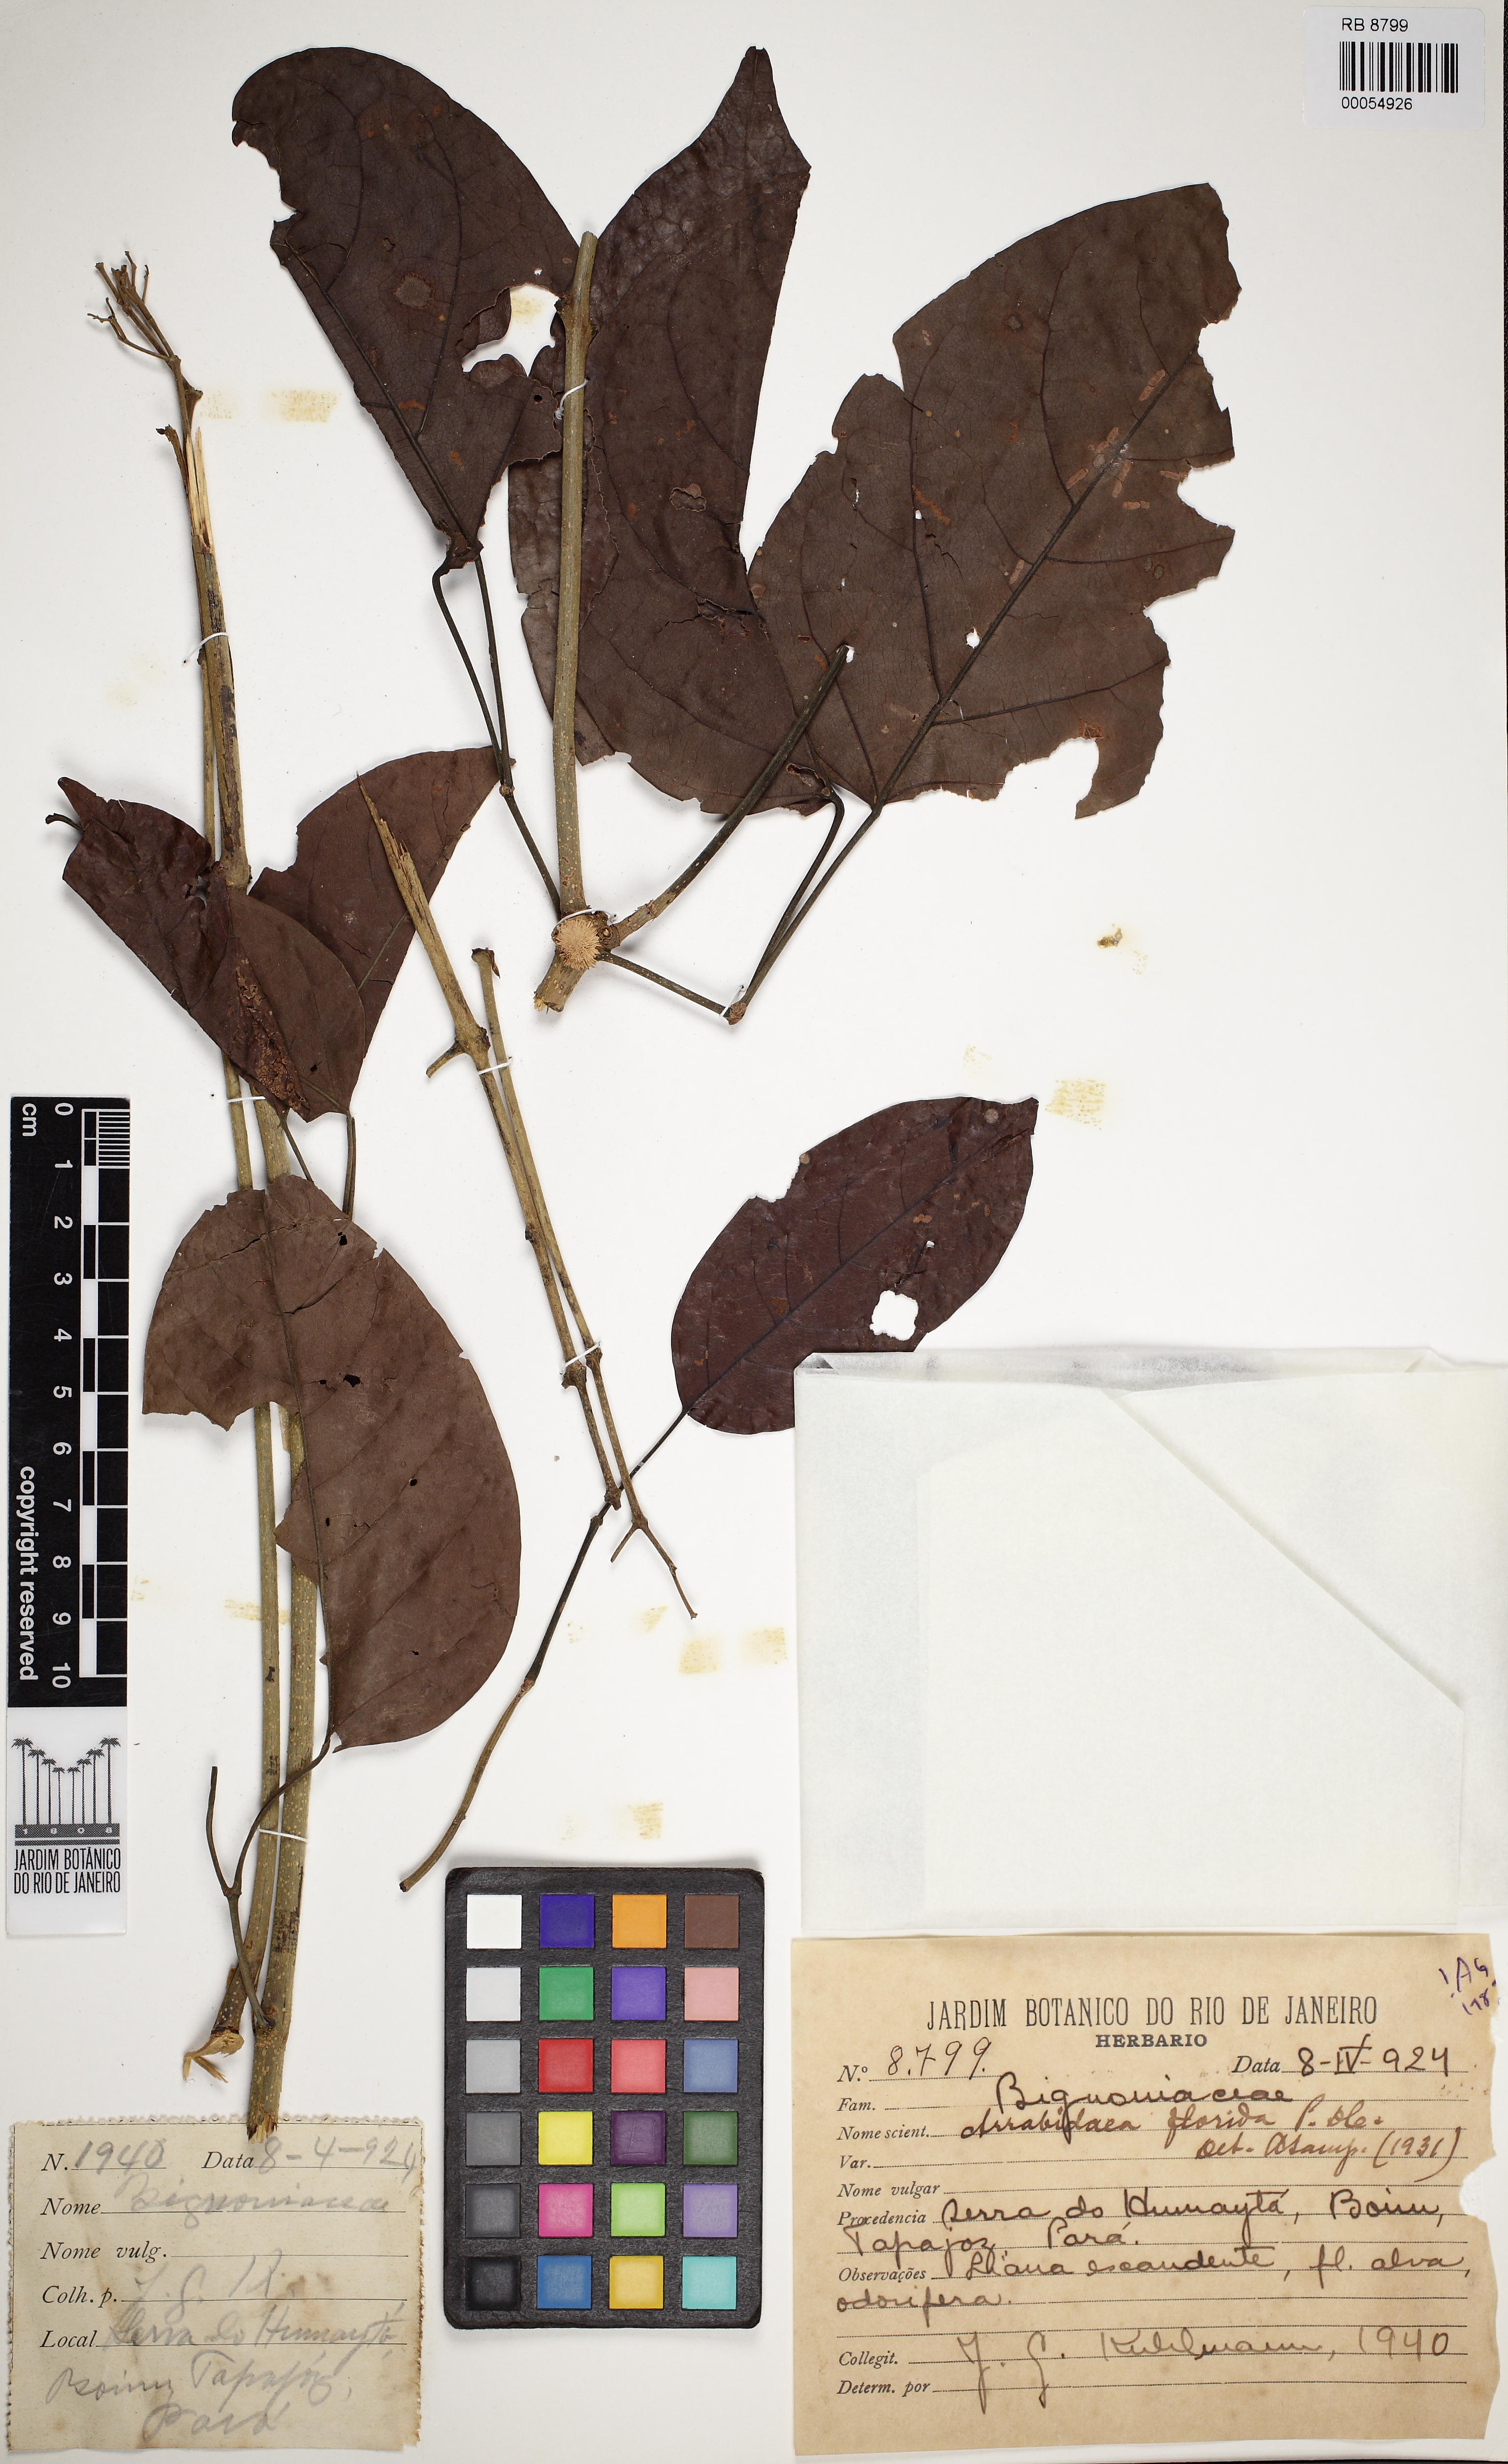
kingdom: Plantae
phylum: Tracheophyta
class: Magnoliopsida
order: Lamiales
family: Bignoniaceae
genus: Fridericia
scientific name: Fridericia florida
